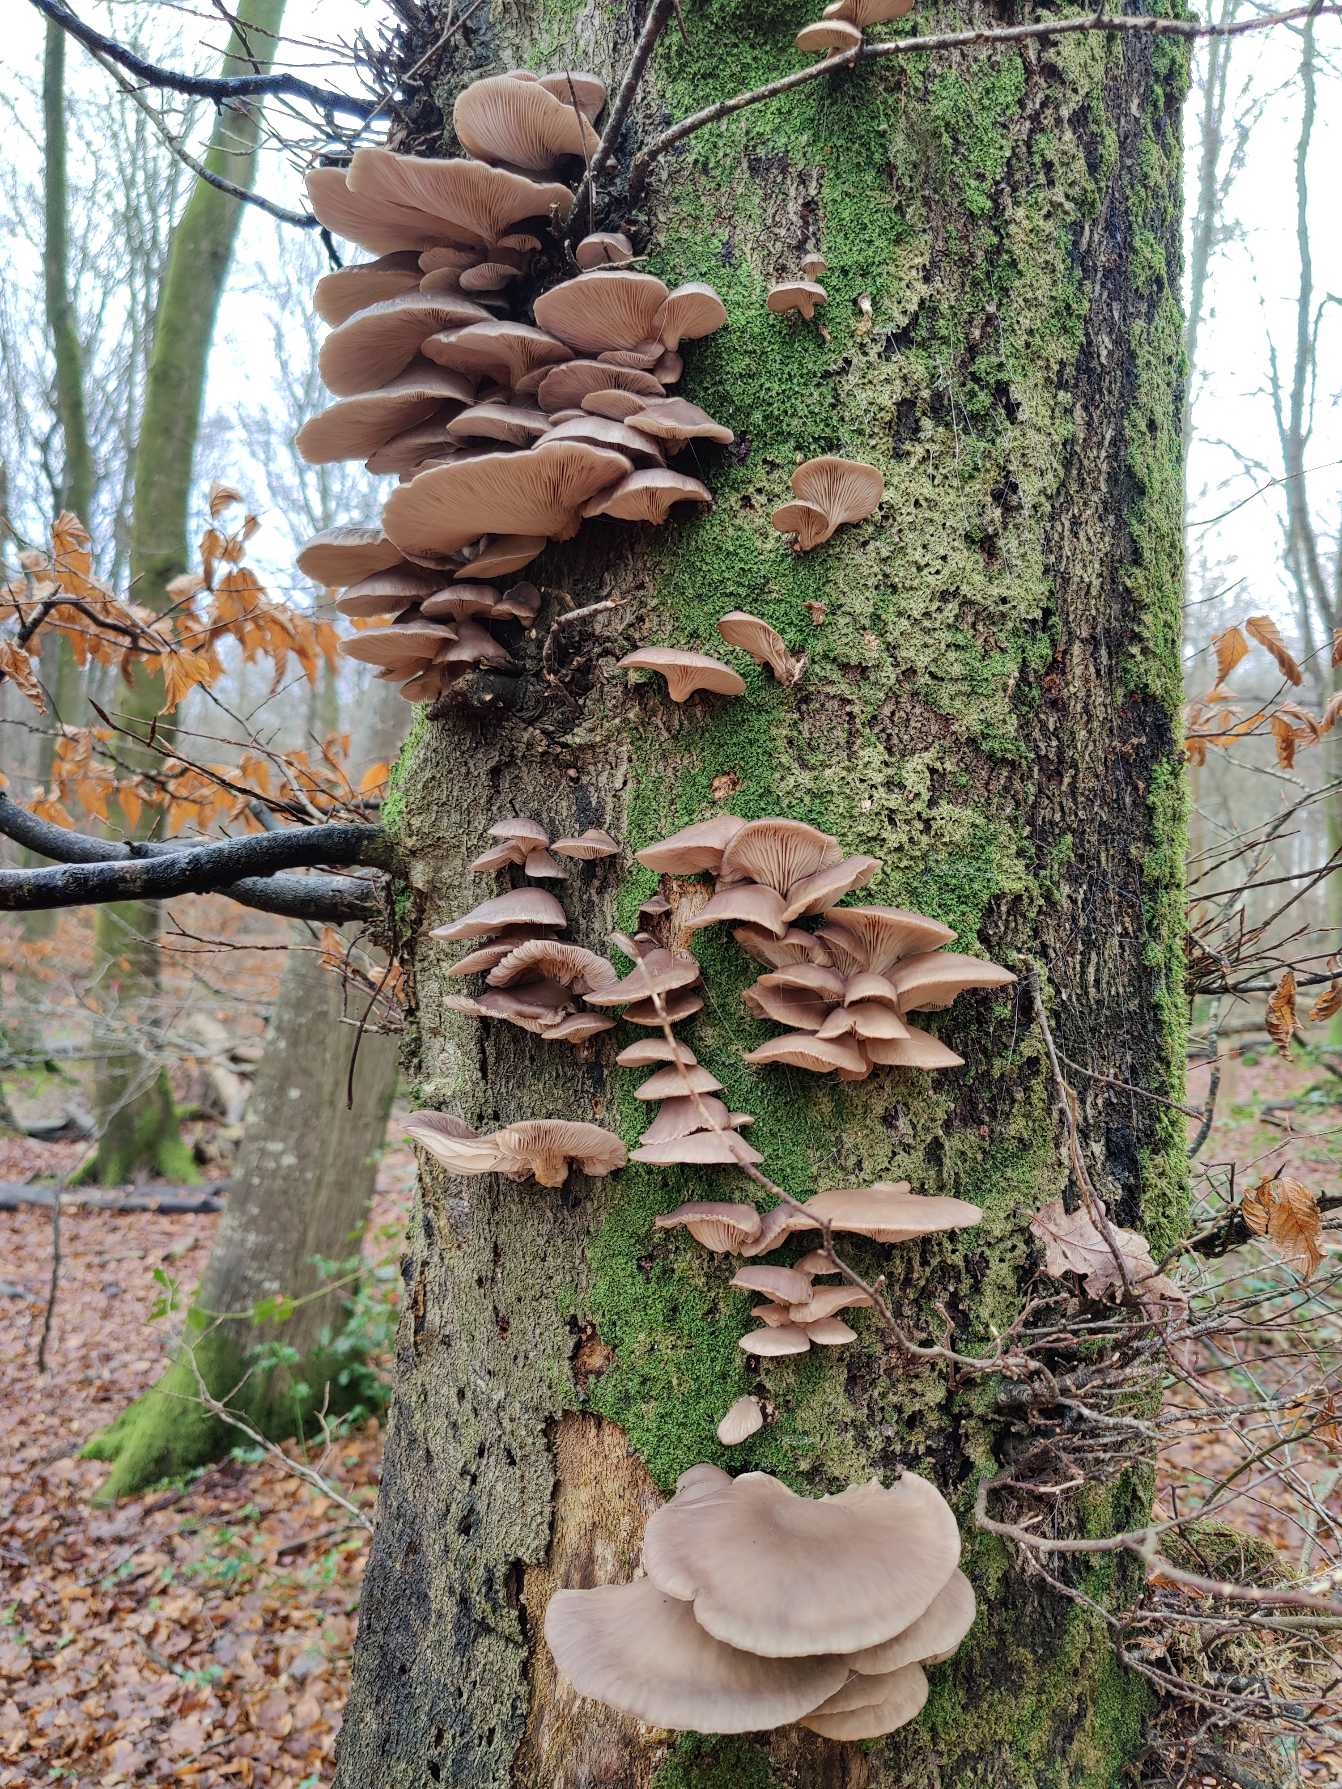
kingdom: Fungi
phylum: Basidiomycota
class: Agaricomycetes
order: Agaricales
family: Pleurotaceae
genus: Pleurotus
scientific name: Pleurotus ostreatus
